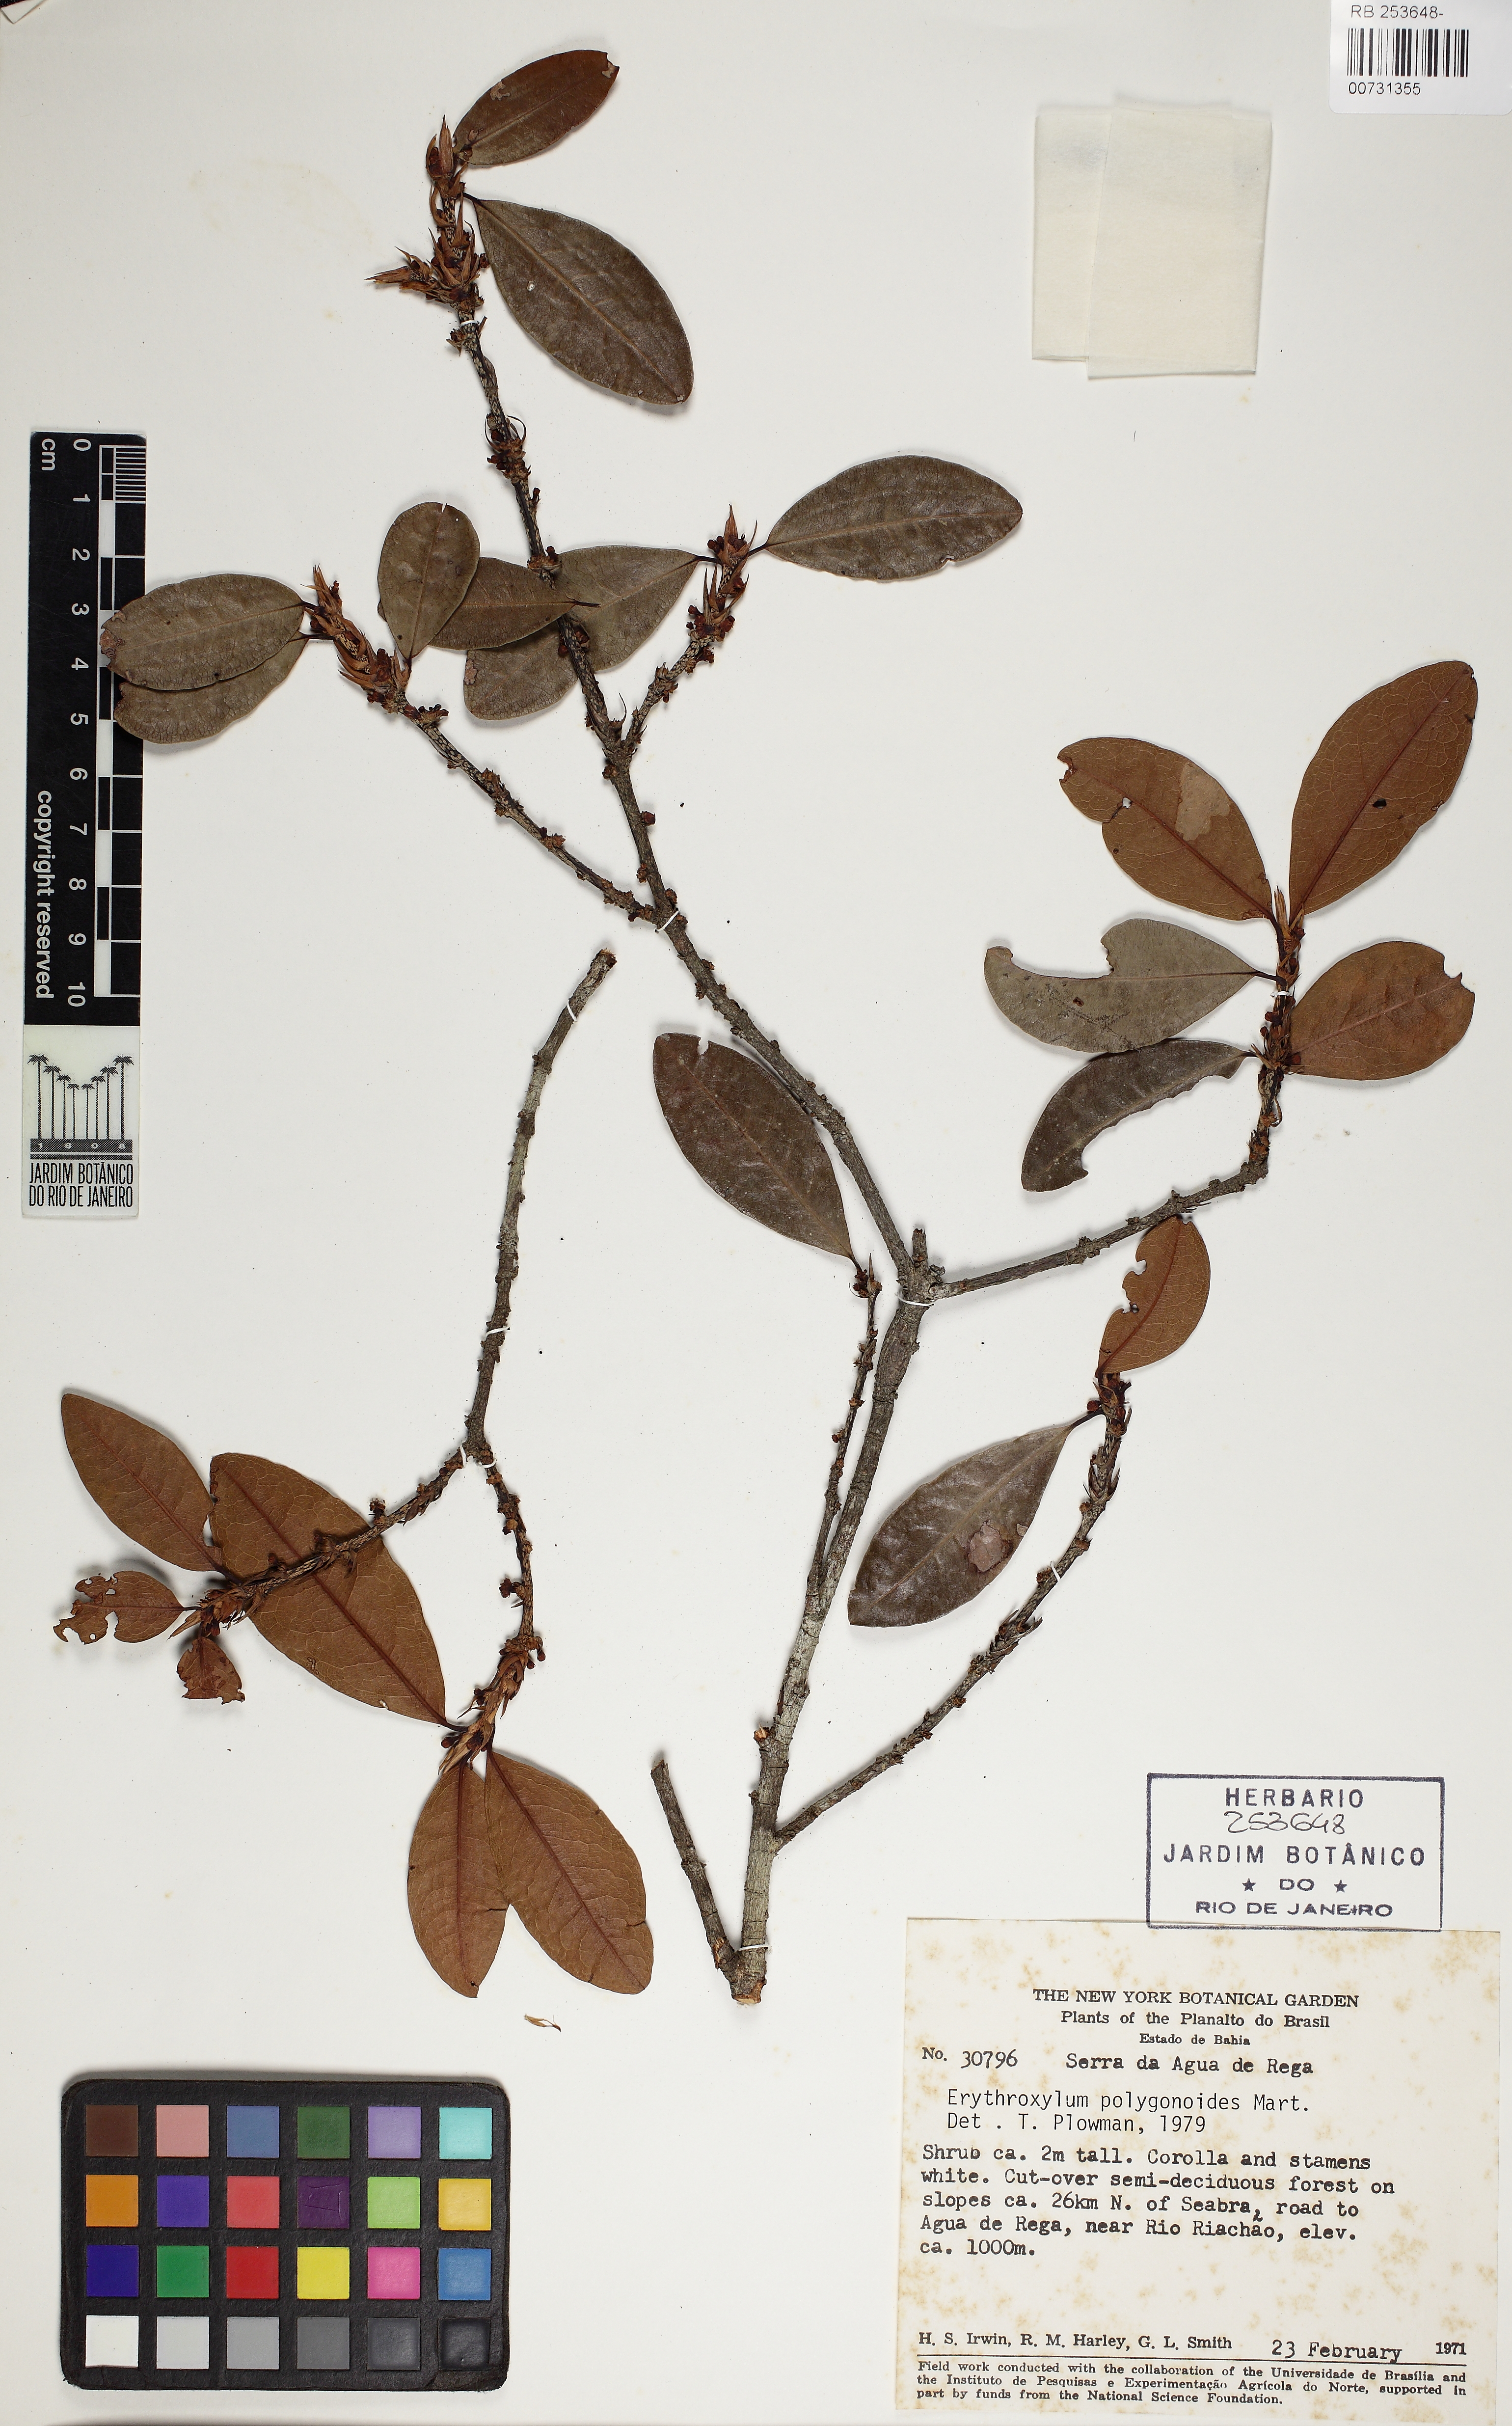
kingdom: Plantae
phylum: Tracheophyta
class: Magnoliopsida
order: Malpighiales
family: Erythroxylaceae
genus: Erythroxylum
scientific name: Erythroxylum polygonoides
